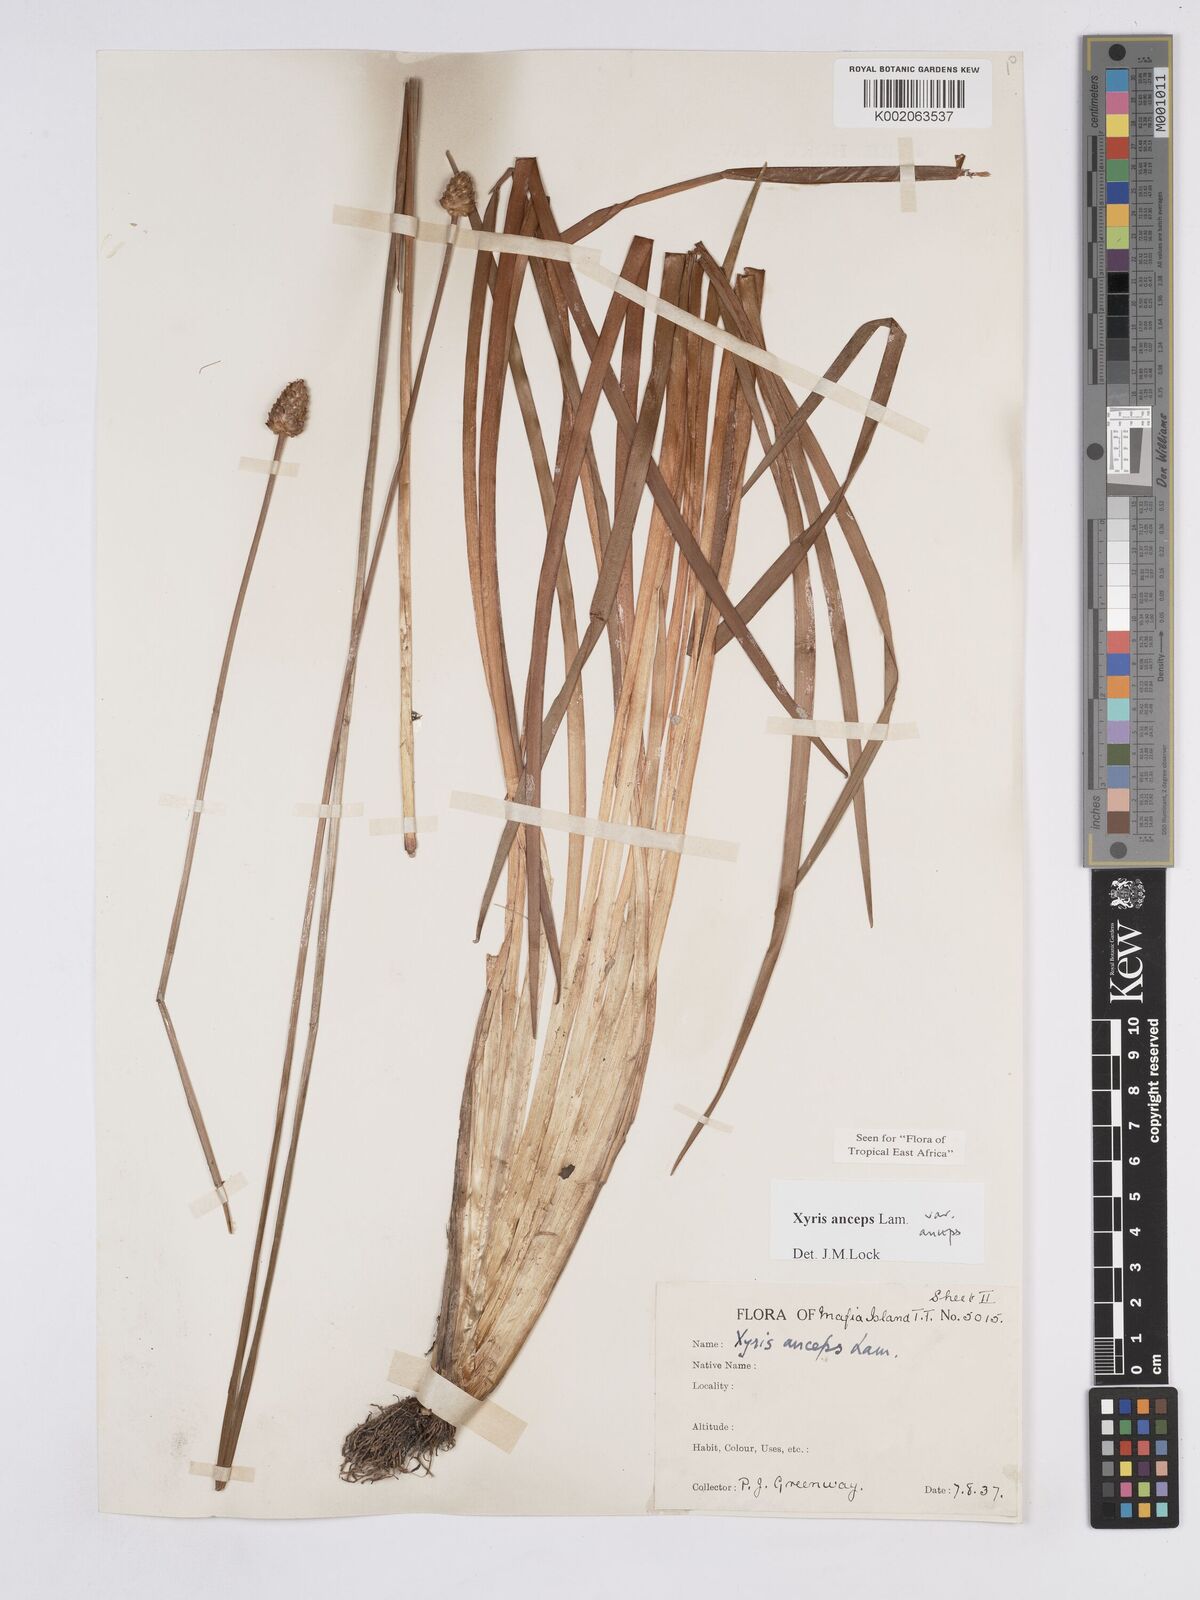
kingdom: Plantae
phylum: Tracheophyta
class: Liliopsida
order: Poales
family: Xyridaceae
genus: Xyris
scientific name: Xyris anceps
